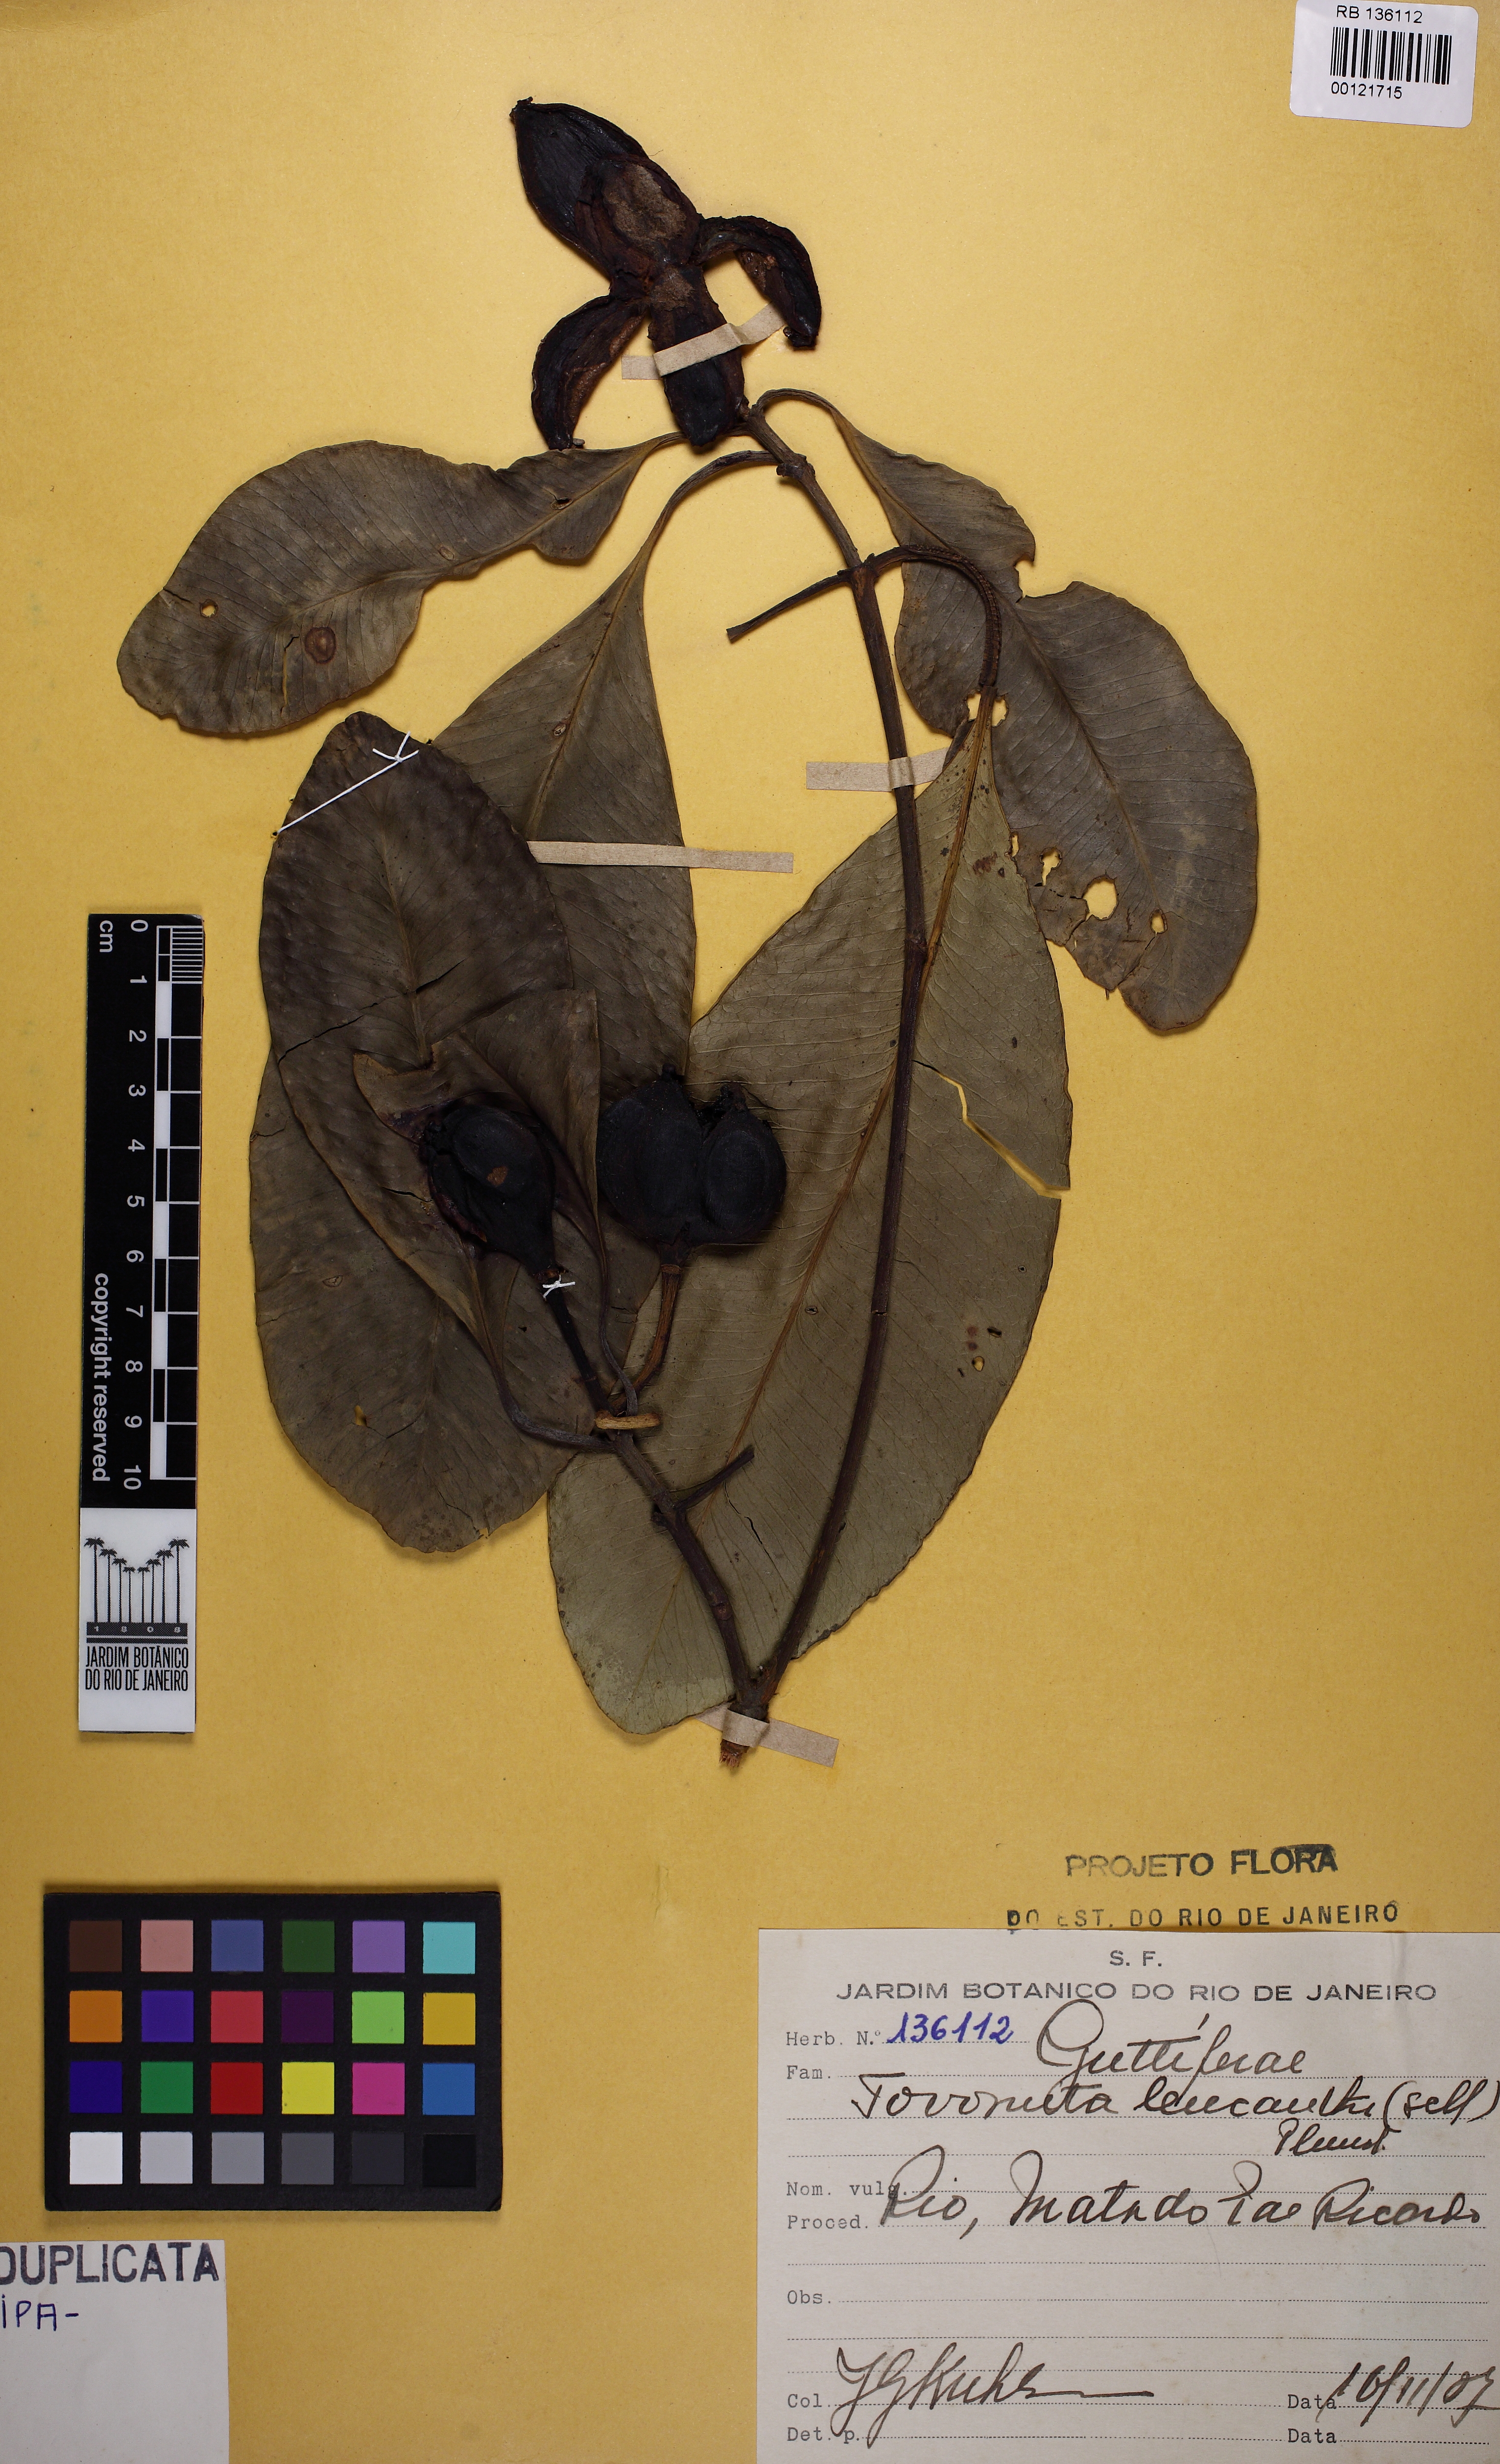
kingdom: Plantae
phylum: Tracheophyta
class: Magnoliopsida
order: Malpighiales
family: Clusiaceae
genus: Tovomita
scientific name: Tovomita leucantha
